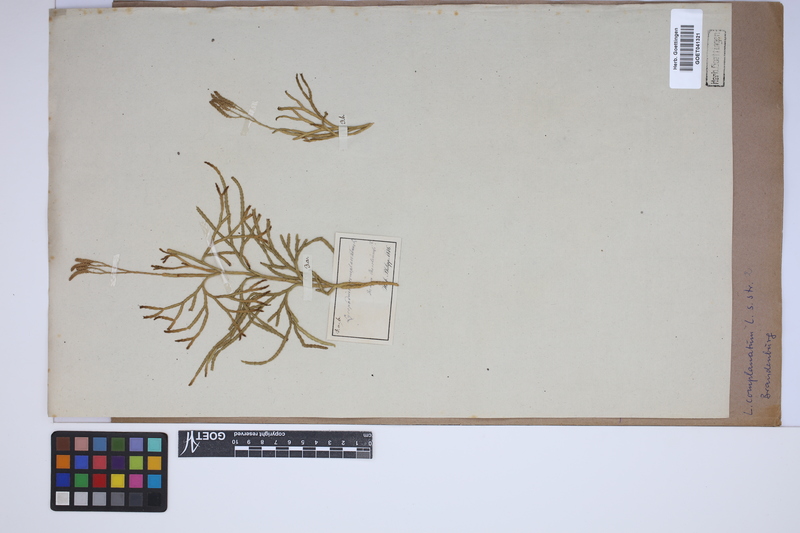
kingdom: Plantae
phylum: Tracheophyta
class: Lycopodiopsida
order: Lycopodiales
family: Lycopodiaceae
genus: Diphasiastrum
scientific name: Diphasiastrum complanatum
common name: Northern running-pine
